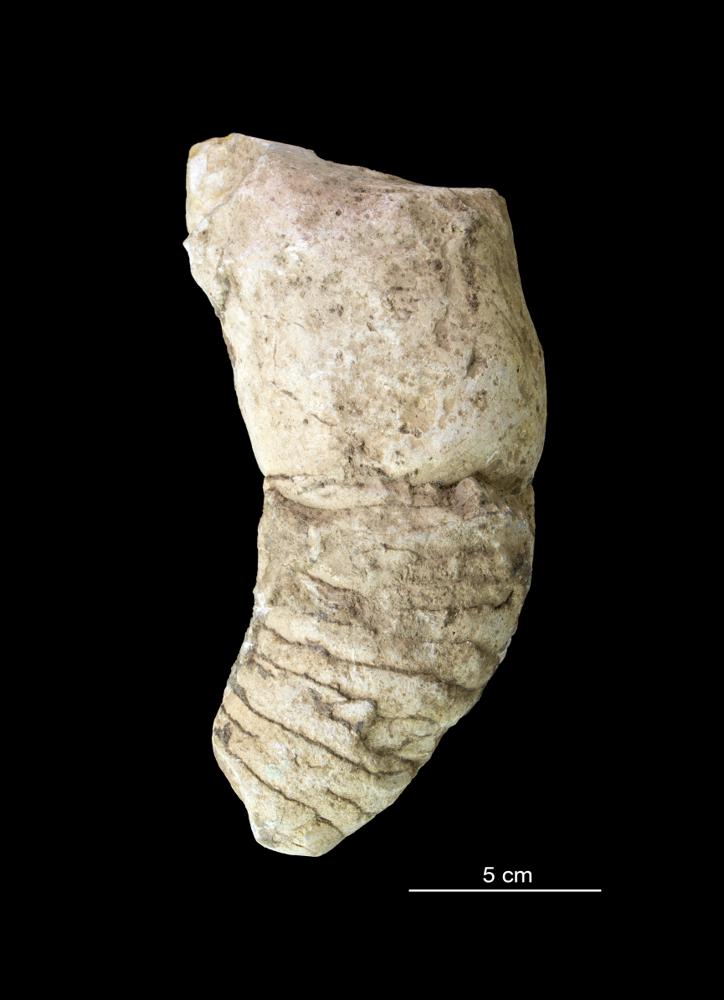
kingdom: Animalia
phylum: Mollusca
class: Cephalopoda
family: Protophragmoceratidae
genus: Lyckholmoceras
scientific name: Lyckholmoceras estoniae
